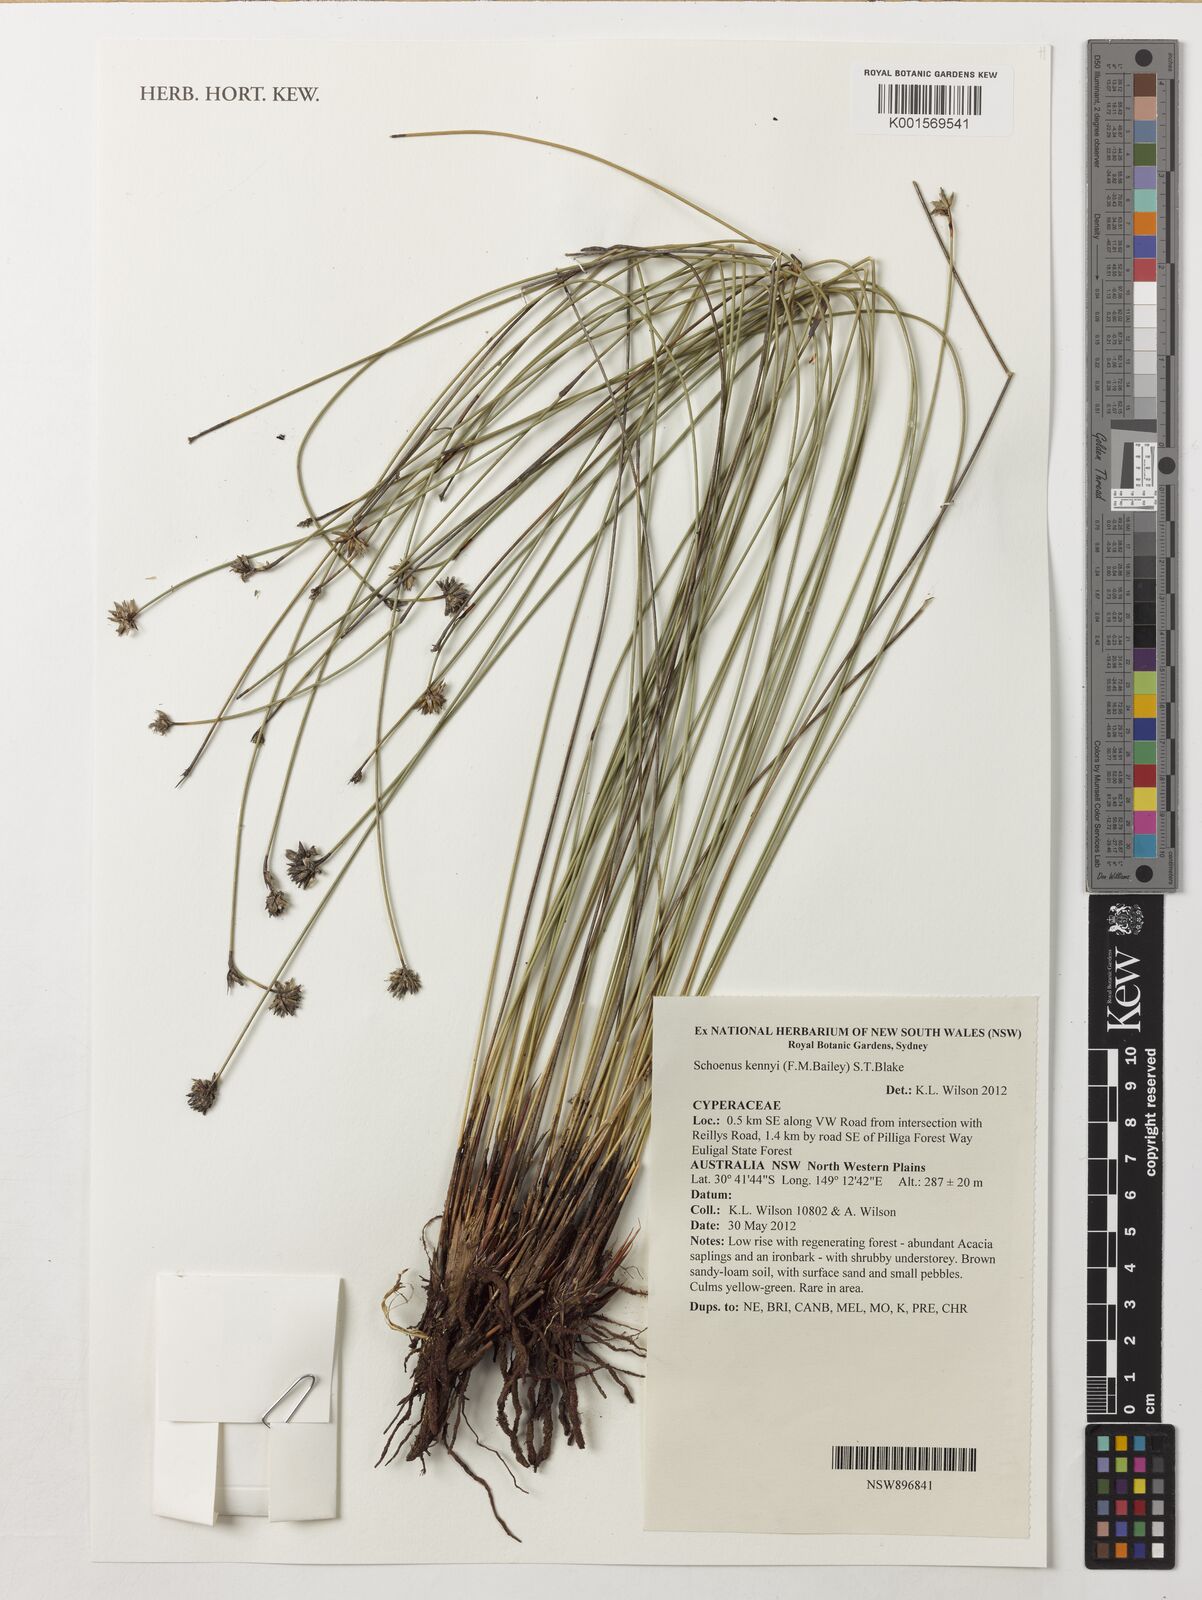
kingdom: Plantae
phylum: Tracheophyta
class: Liliopsida
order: Poales
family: Cyperaceae
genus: Schoenus
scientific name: Schoenus kennyi
